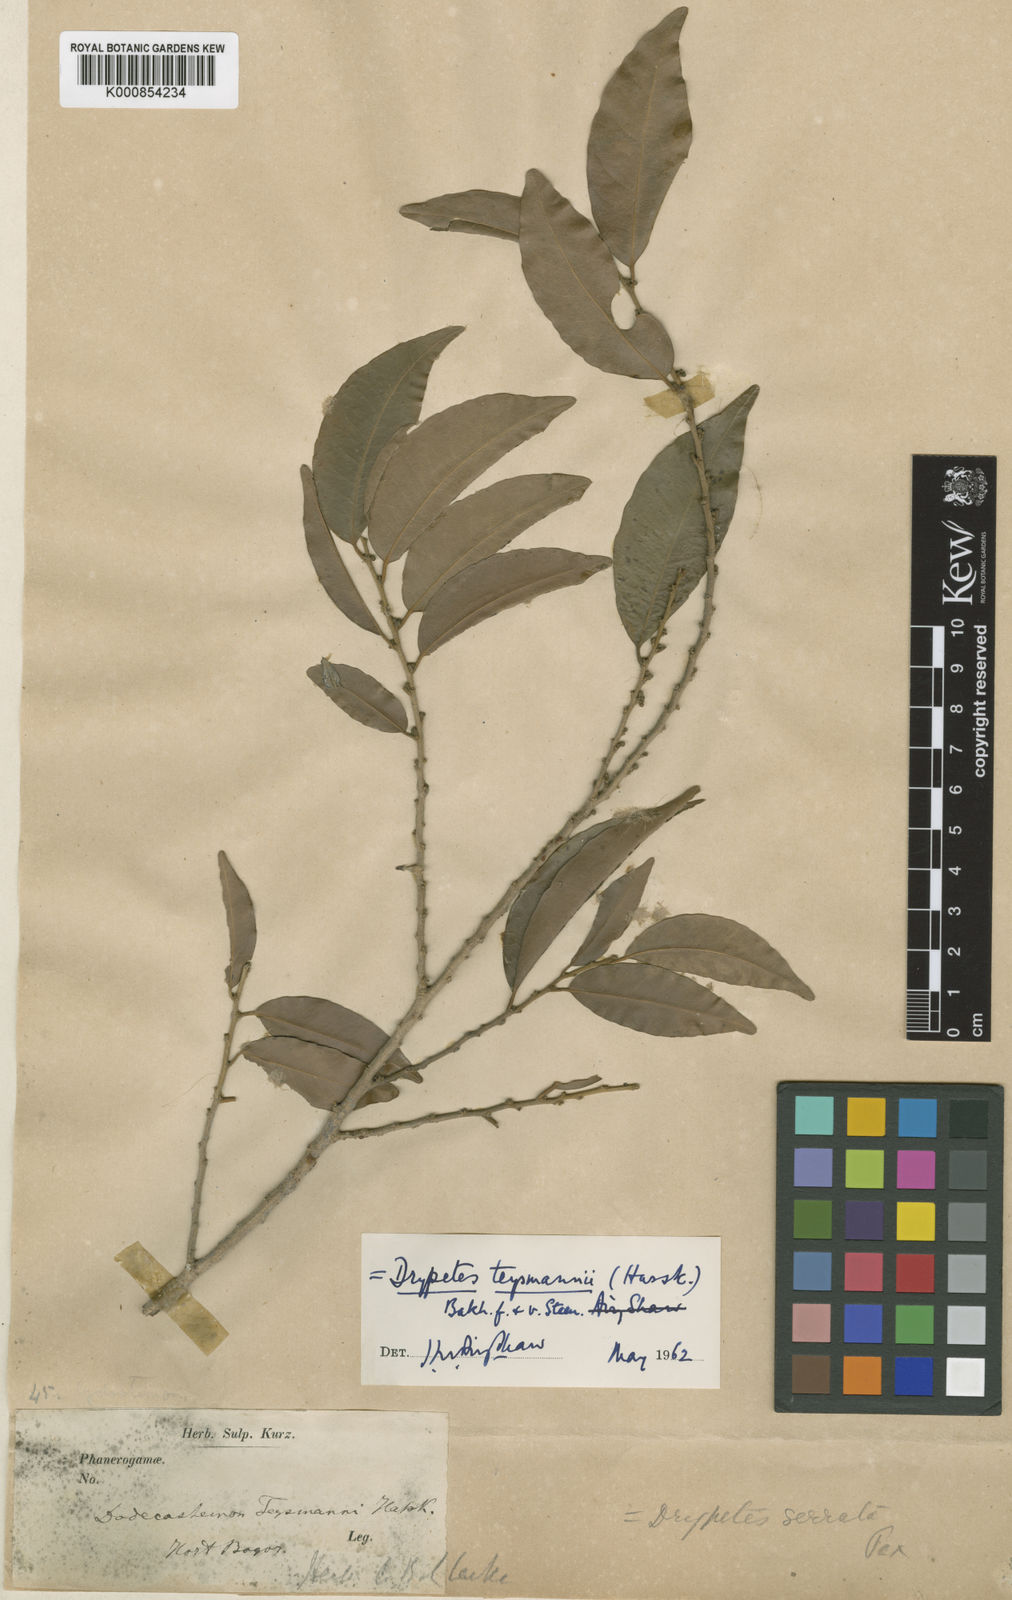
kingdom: Plantae
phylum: Tracheophyta
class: Magnoliopsida
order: Malpighiales
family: Putranjivaceae
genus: Drypetes
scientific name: Drypetes teysmannii
